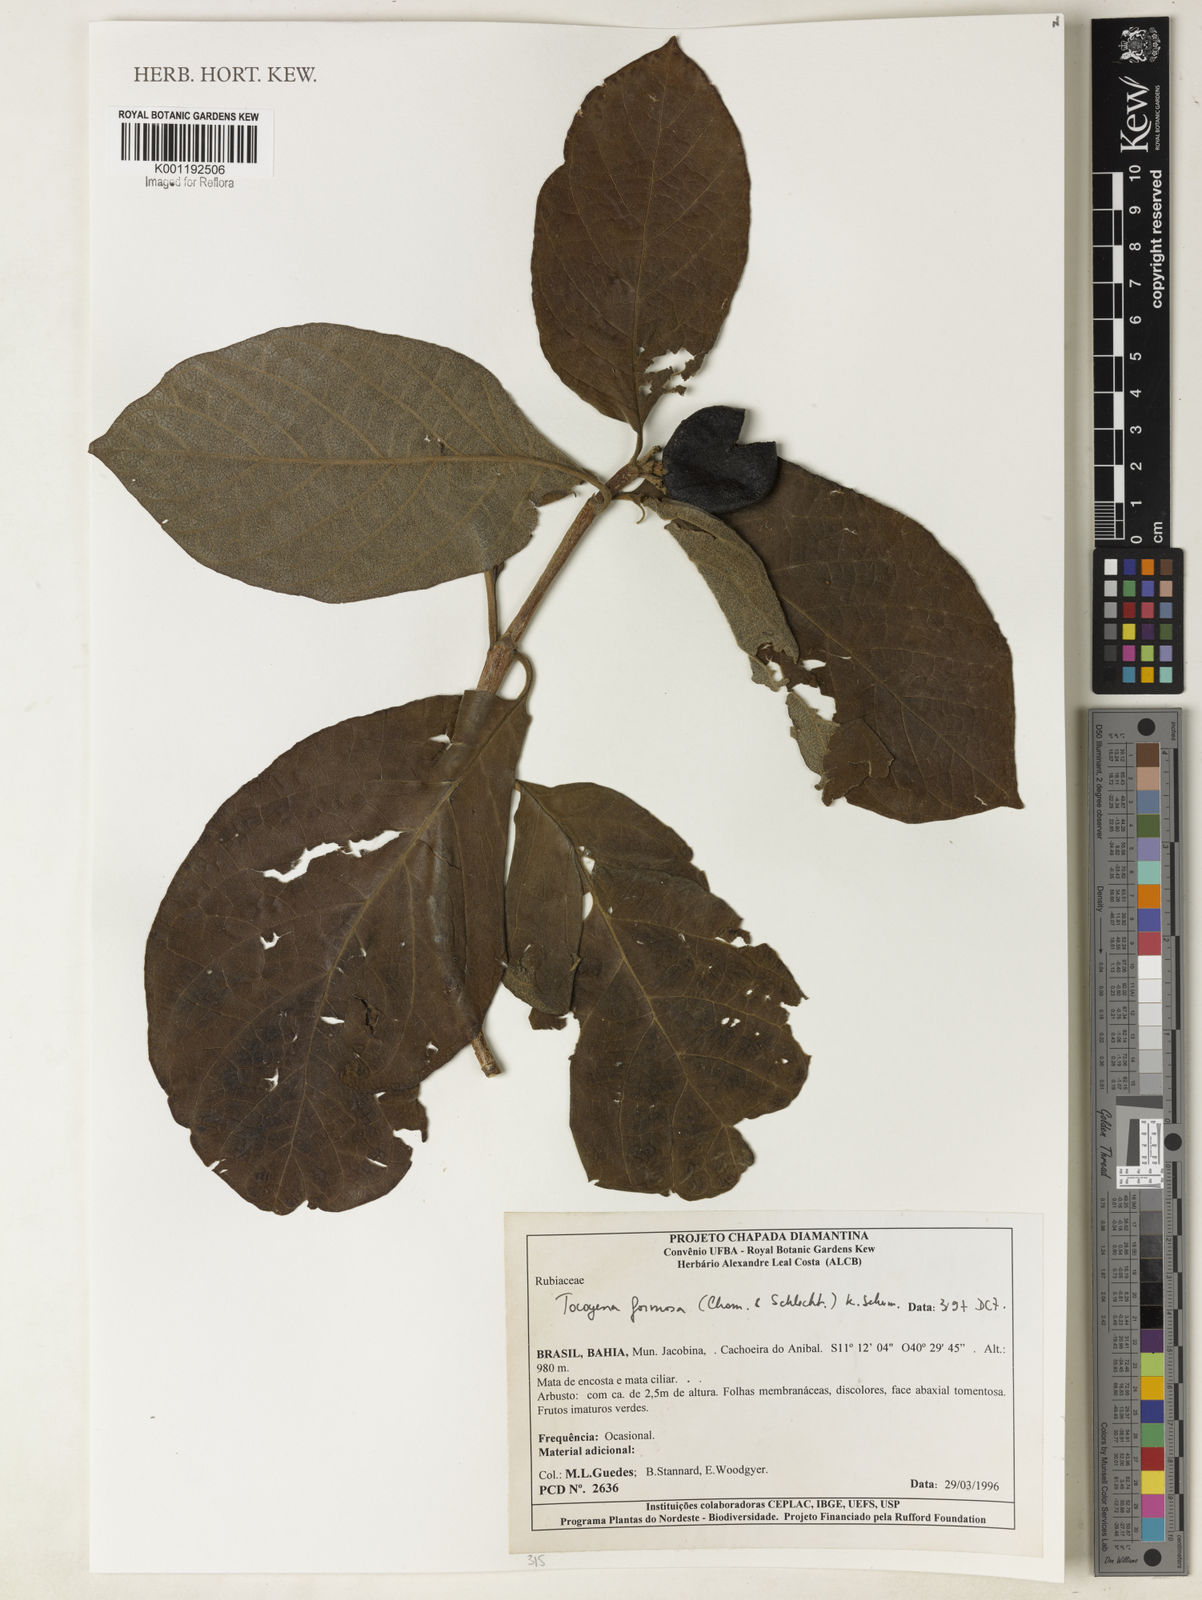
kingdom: Plantae
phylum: Tracheophyta
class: Magnoliopsida
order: Gentianales
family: Rubiaceae
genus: Tocoyena
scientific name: Tocoyena formosa
